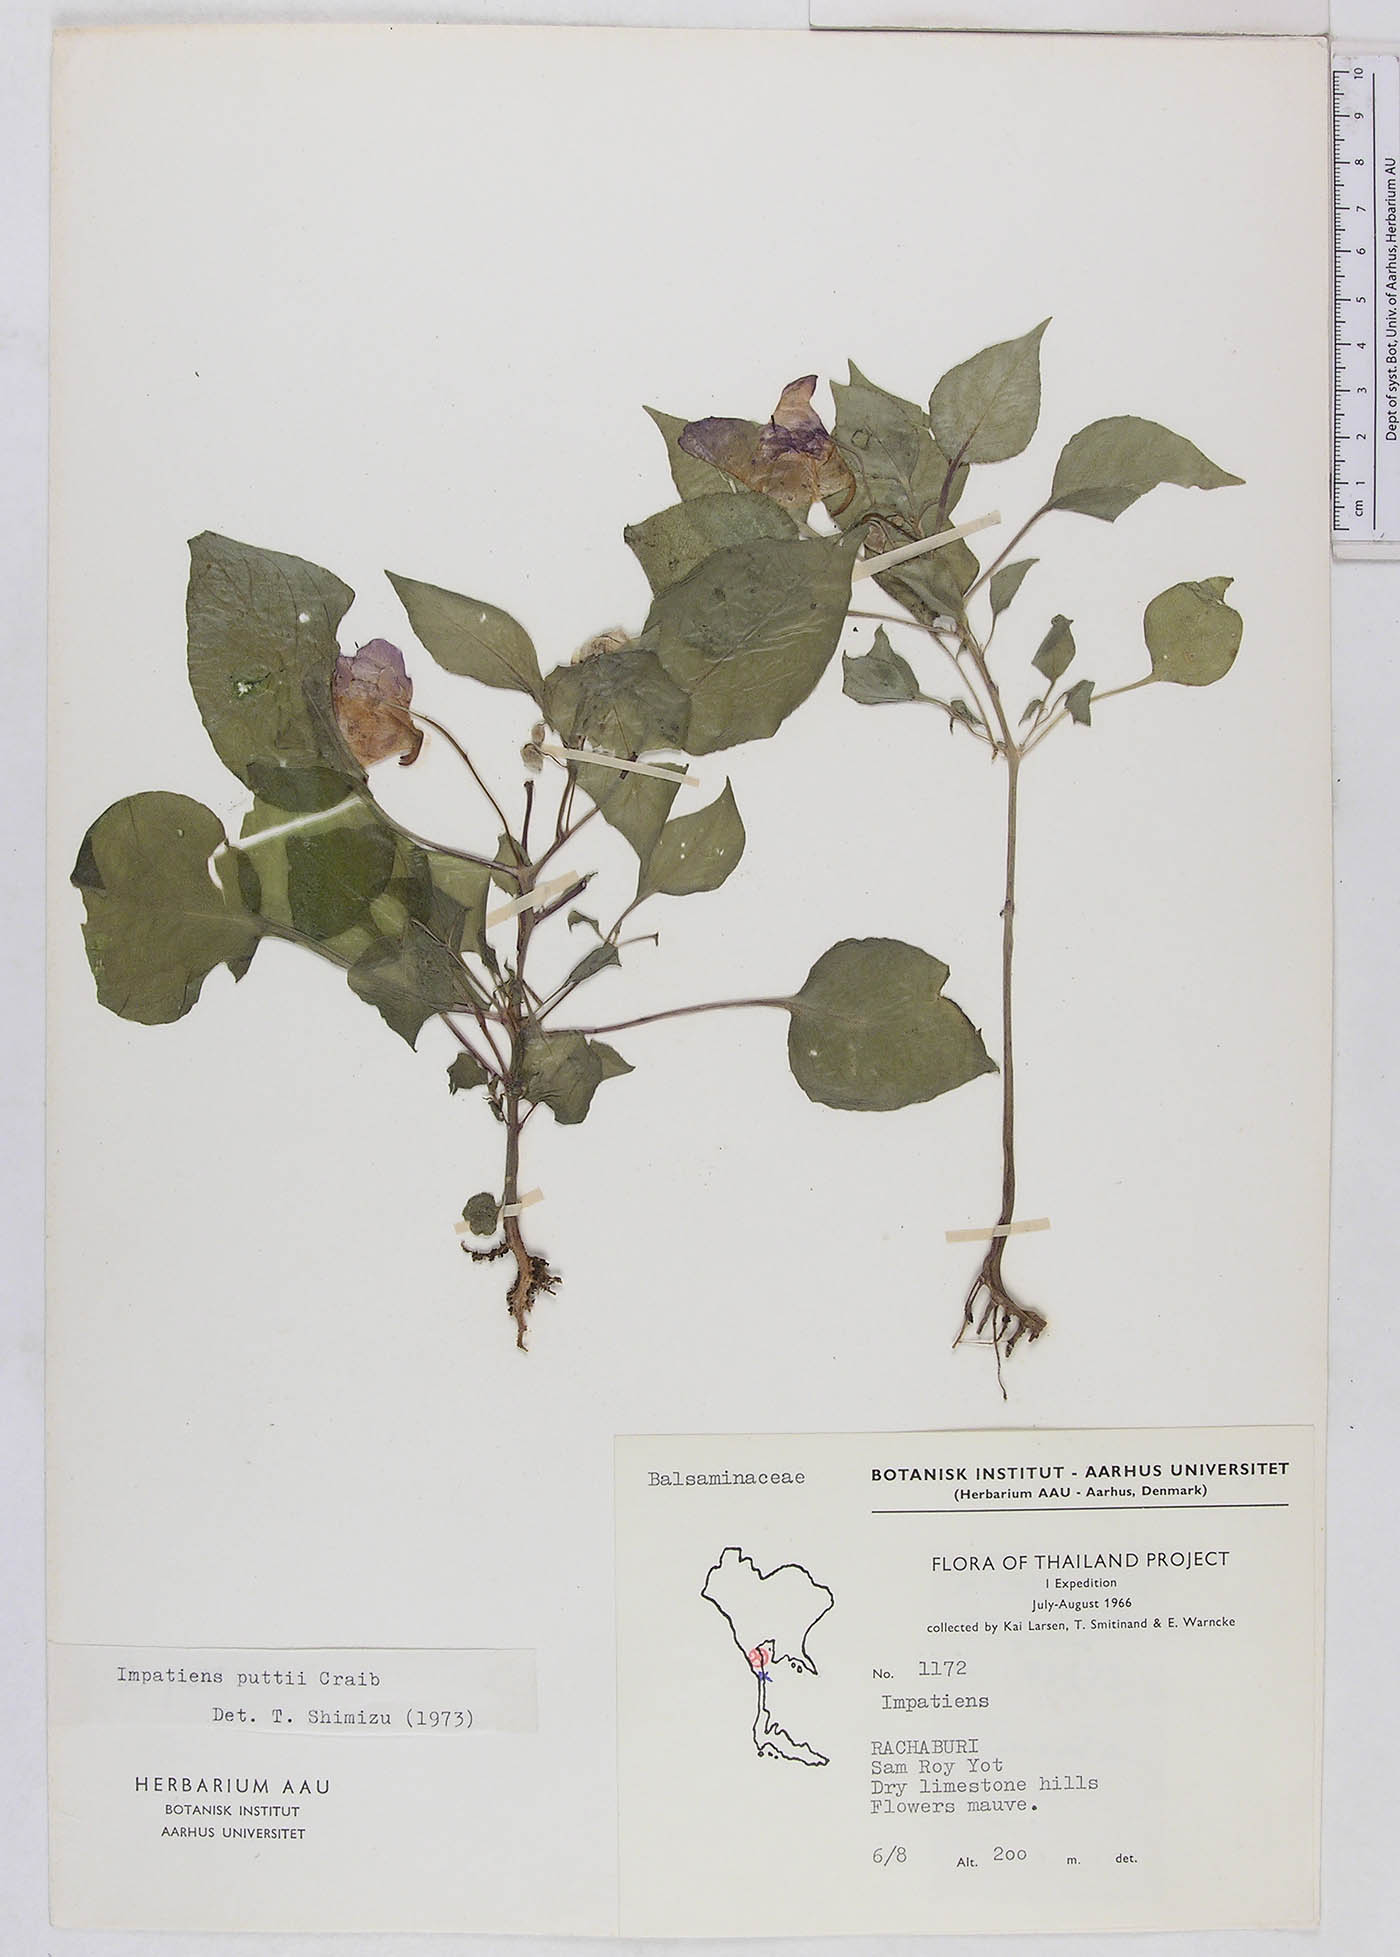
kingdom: Plantae
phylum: Tracheophyta
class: Magnoliopsida
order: Ericales
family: Balsaminaceae
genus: Impatiens
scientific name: Impatiens putii
